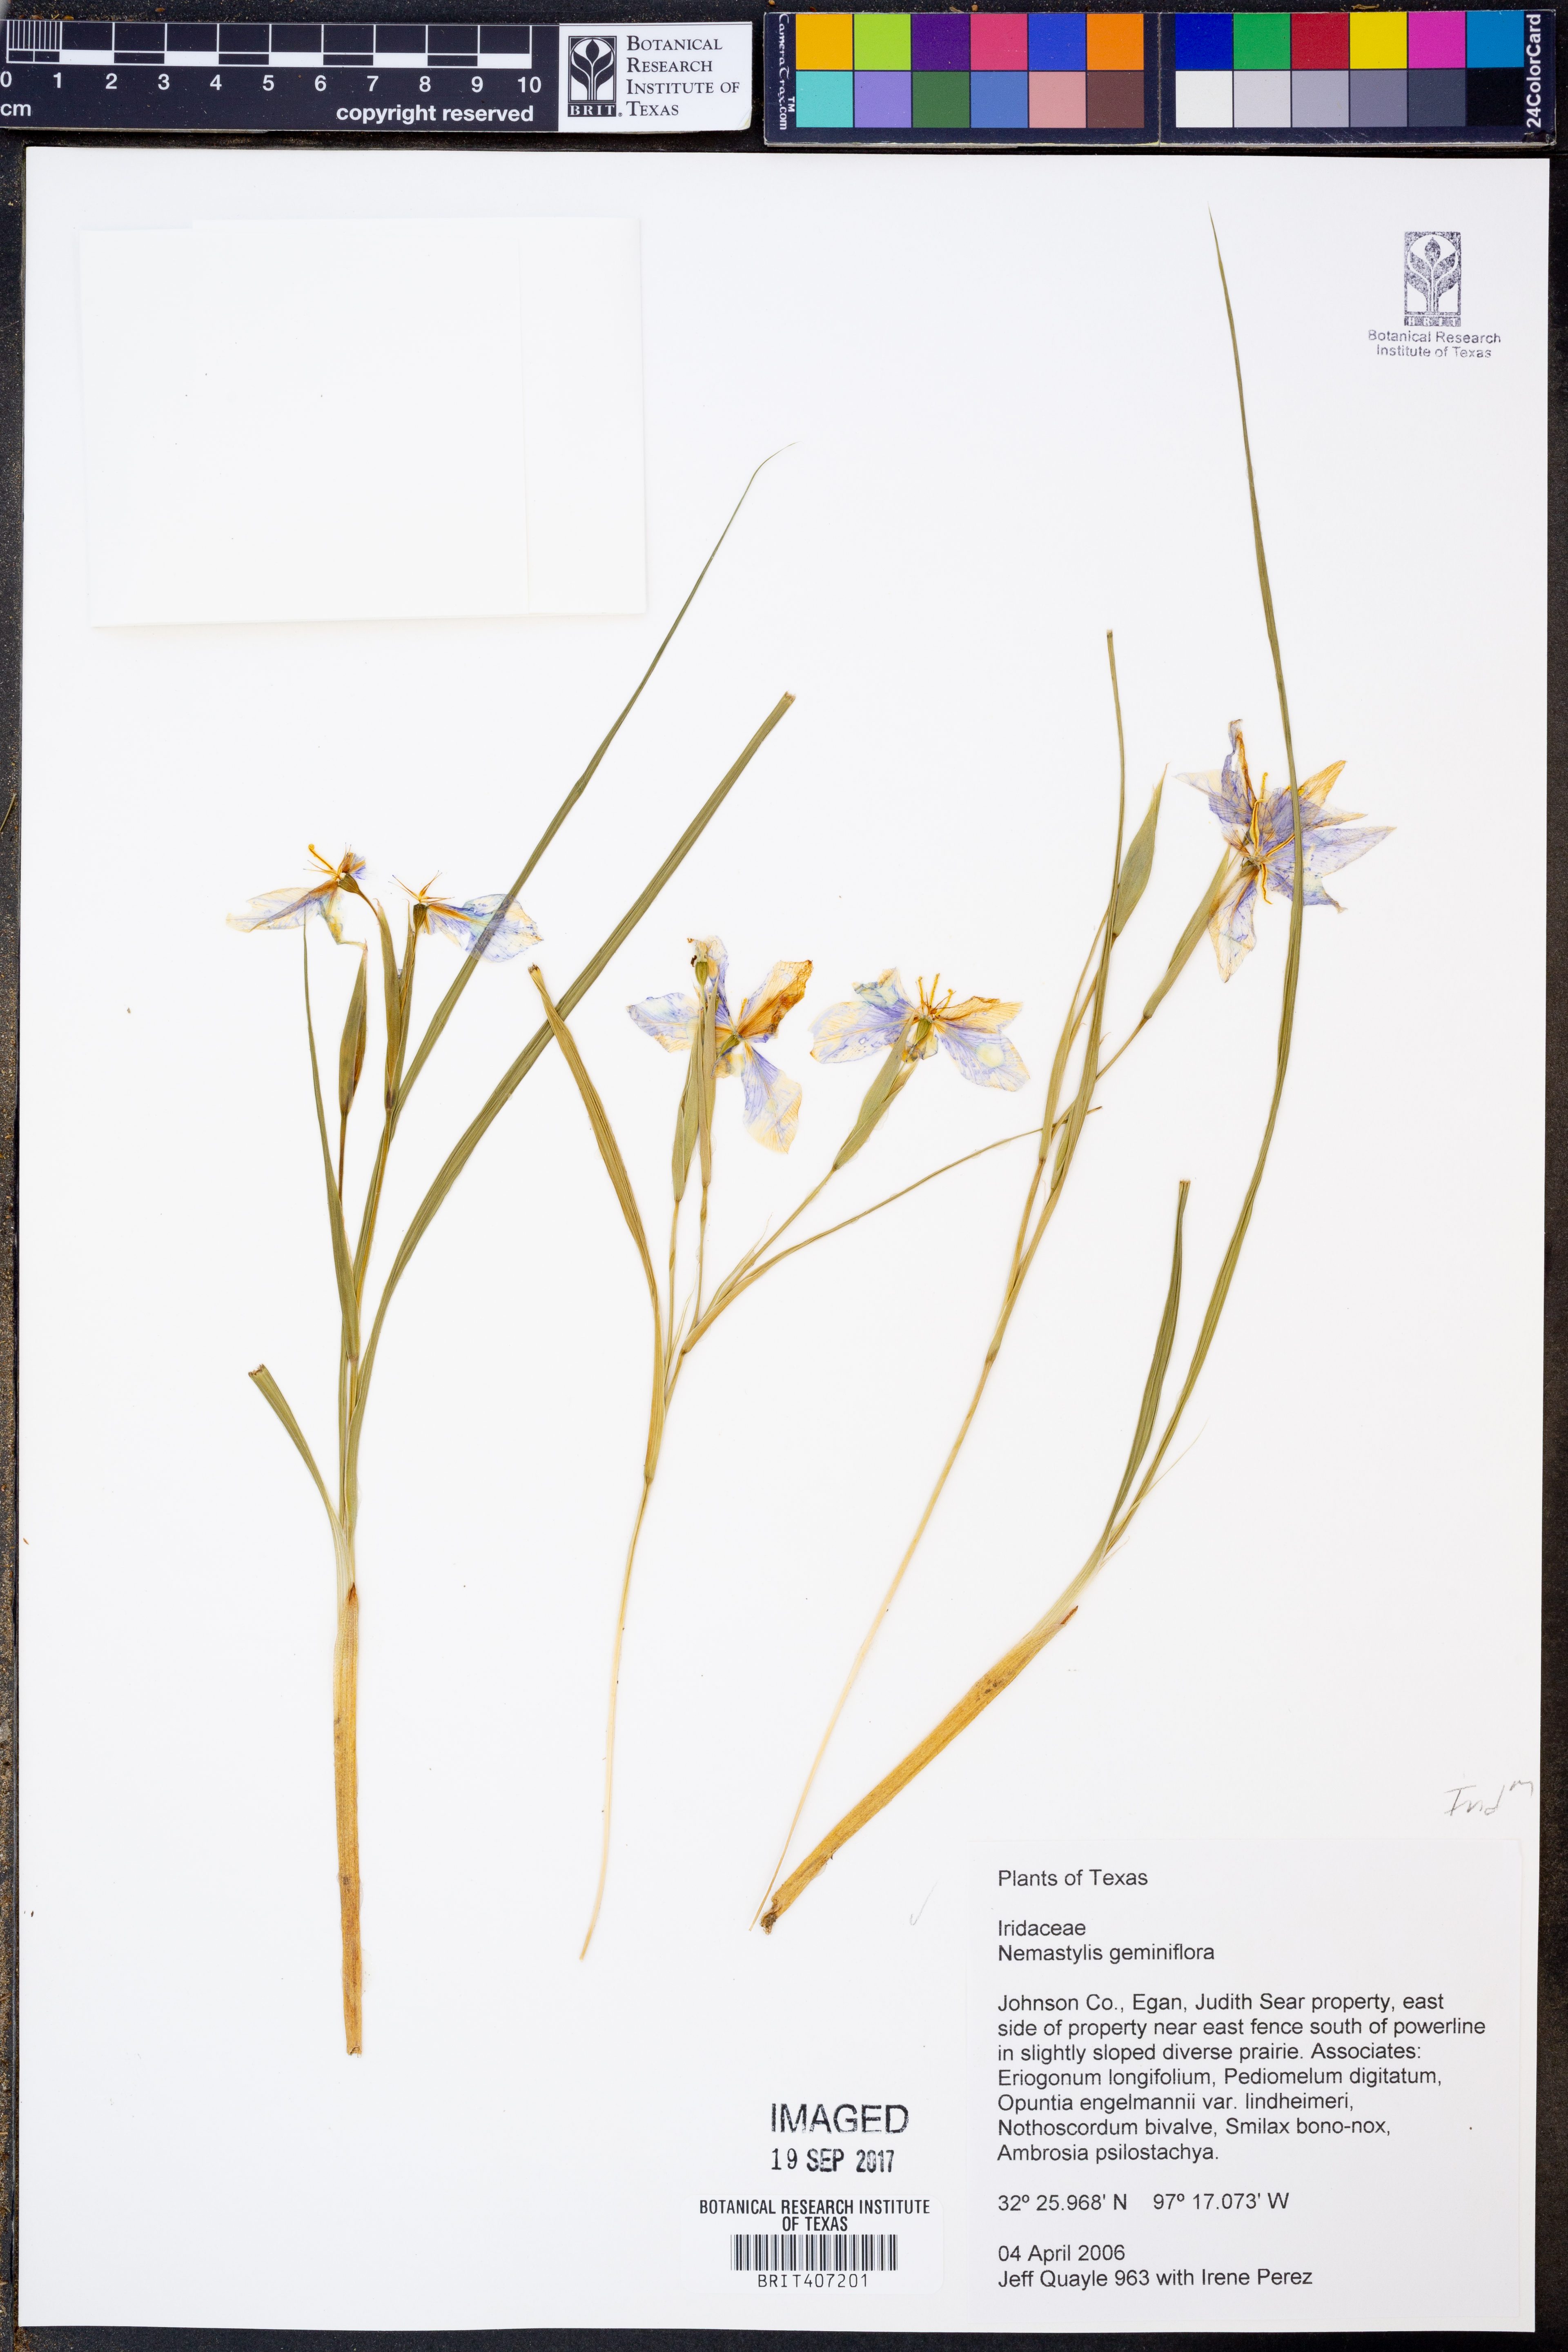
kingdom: Plantae
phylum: Tracheophyta
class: Liliopsida
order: Asparagales
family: Iridaceae
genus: Nemastylis
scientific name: Nemastylis geminiflora
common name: Prairie celestial
